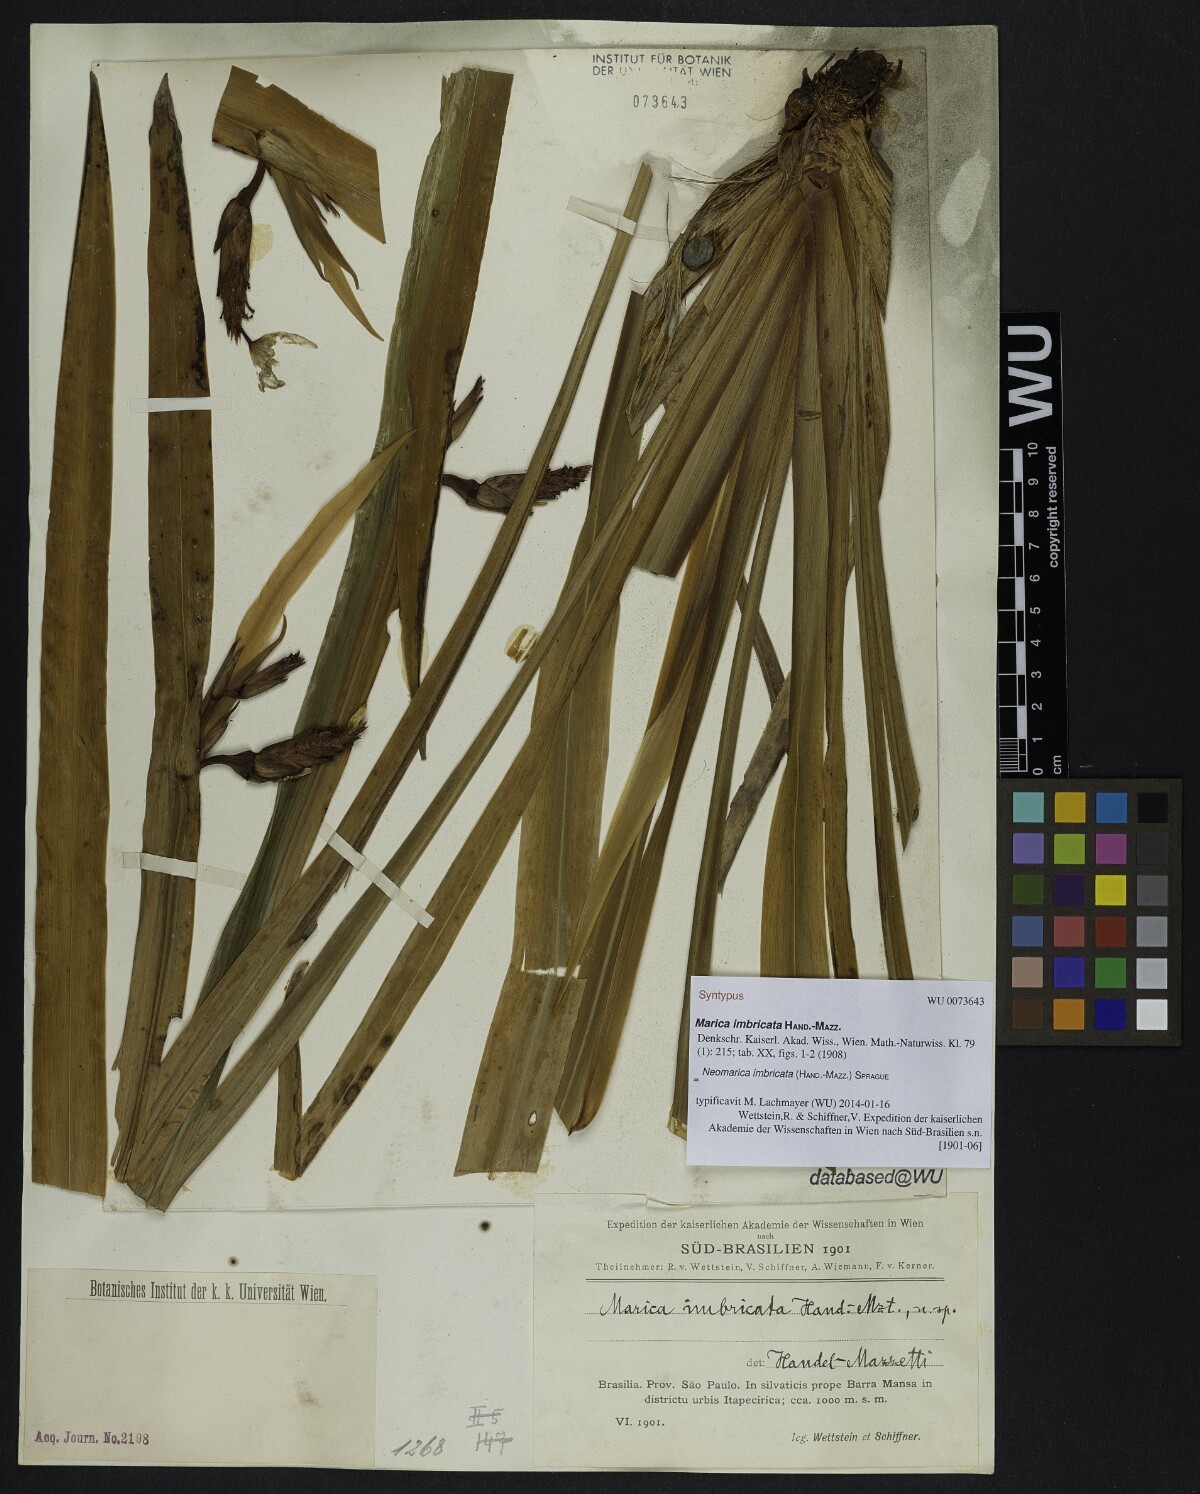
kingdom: Plantae
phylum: Tracheophyta
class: Liliopsida
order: Asparagales
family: Iridaceae
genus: Trimezia
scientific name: Trimezia imbricata
